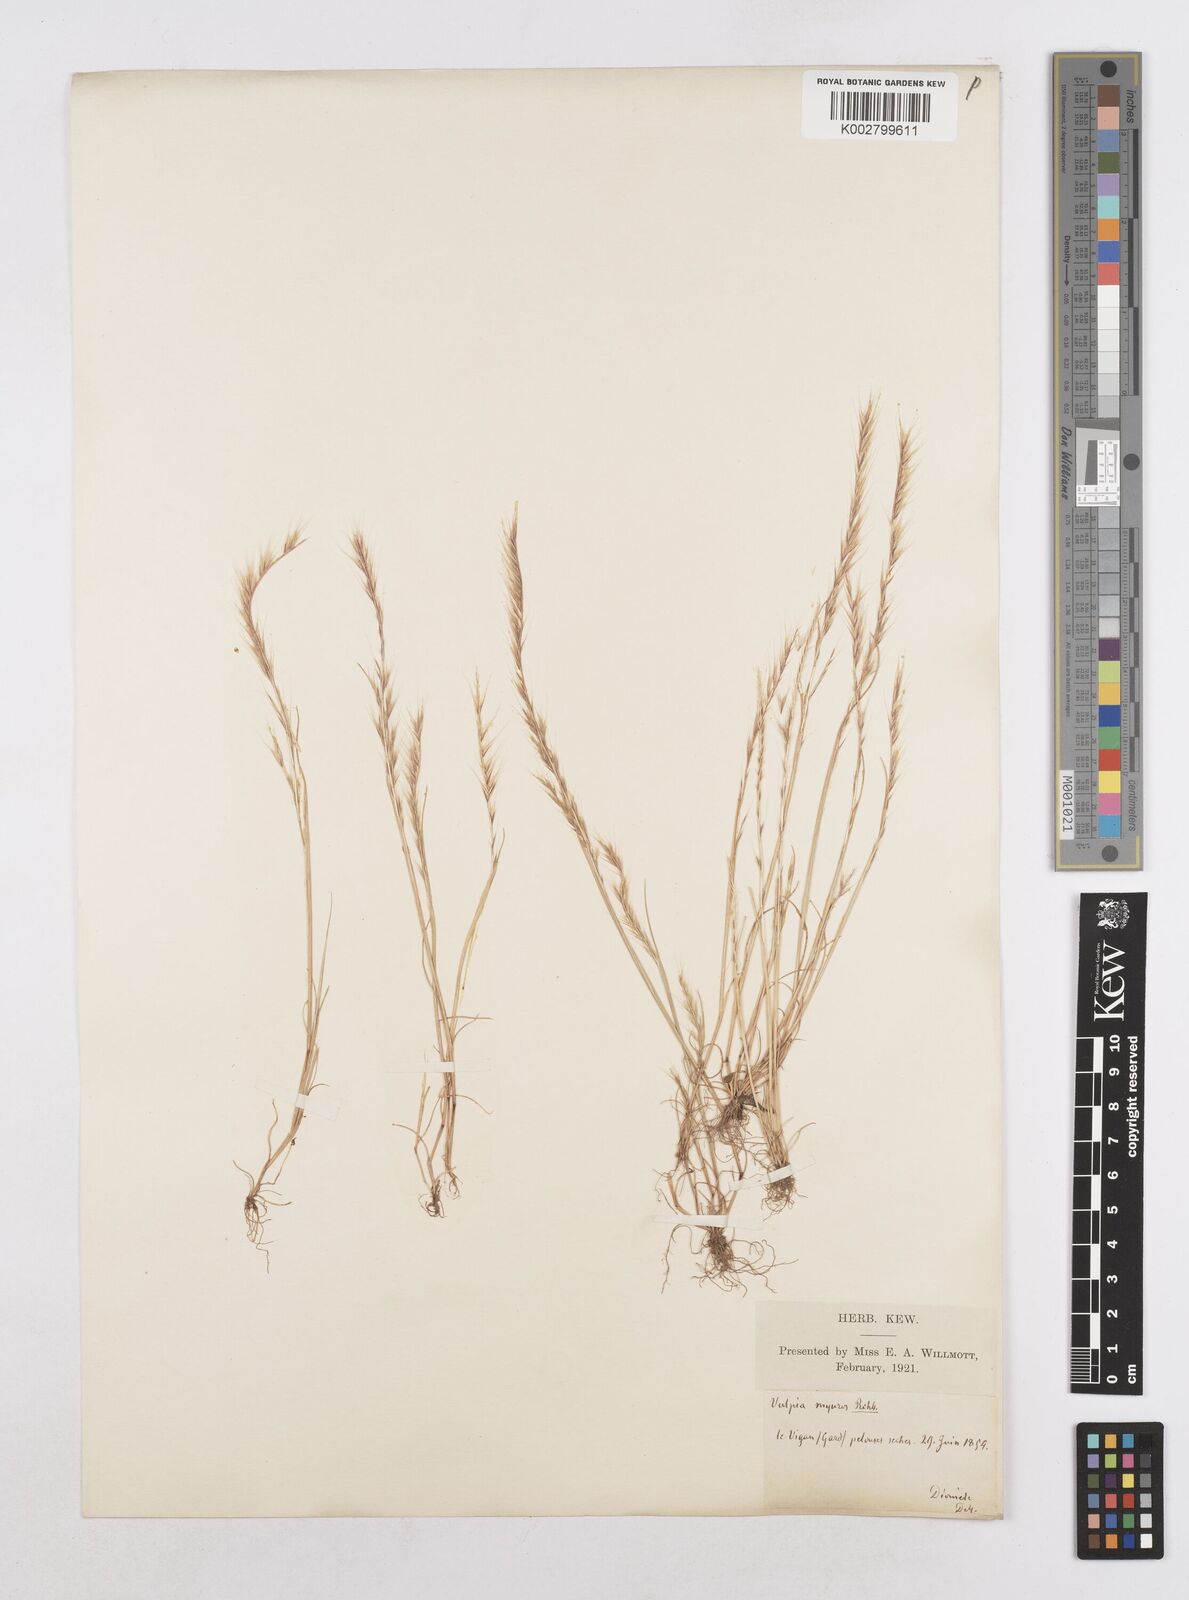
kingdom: Plantae
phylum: Tracheophyta
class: Liliopsida
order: Poales
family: Poaceae
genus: Festuca
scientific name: Festuca
